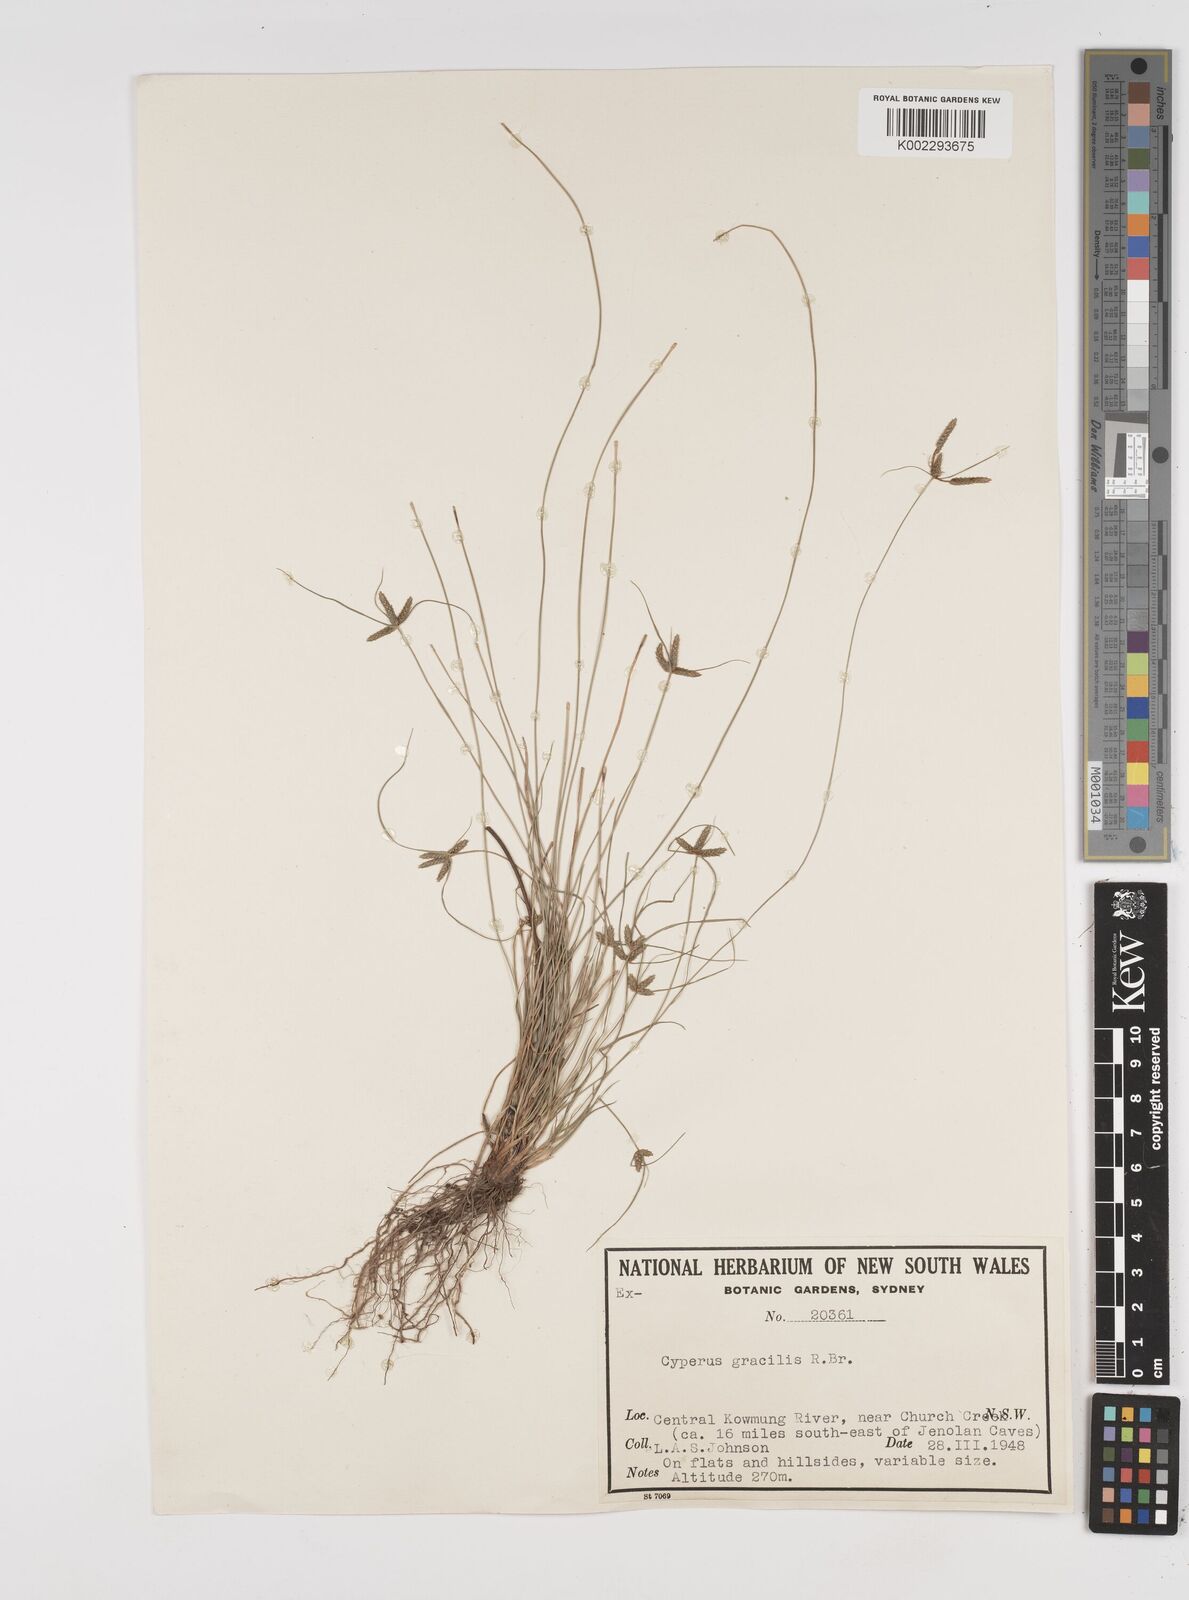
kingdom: Plantae
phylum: Tracheophyta
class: Liliopsida
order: Poales
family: Cyperaceae
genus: Cyperus
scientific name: Cyperus gracilis
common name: Slimjim flatsedge
